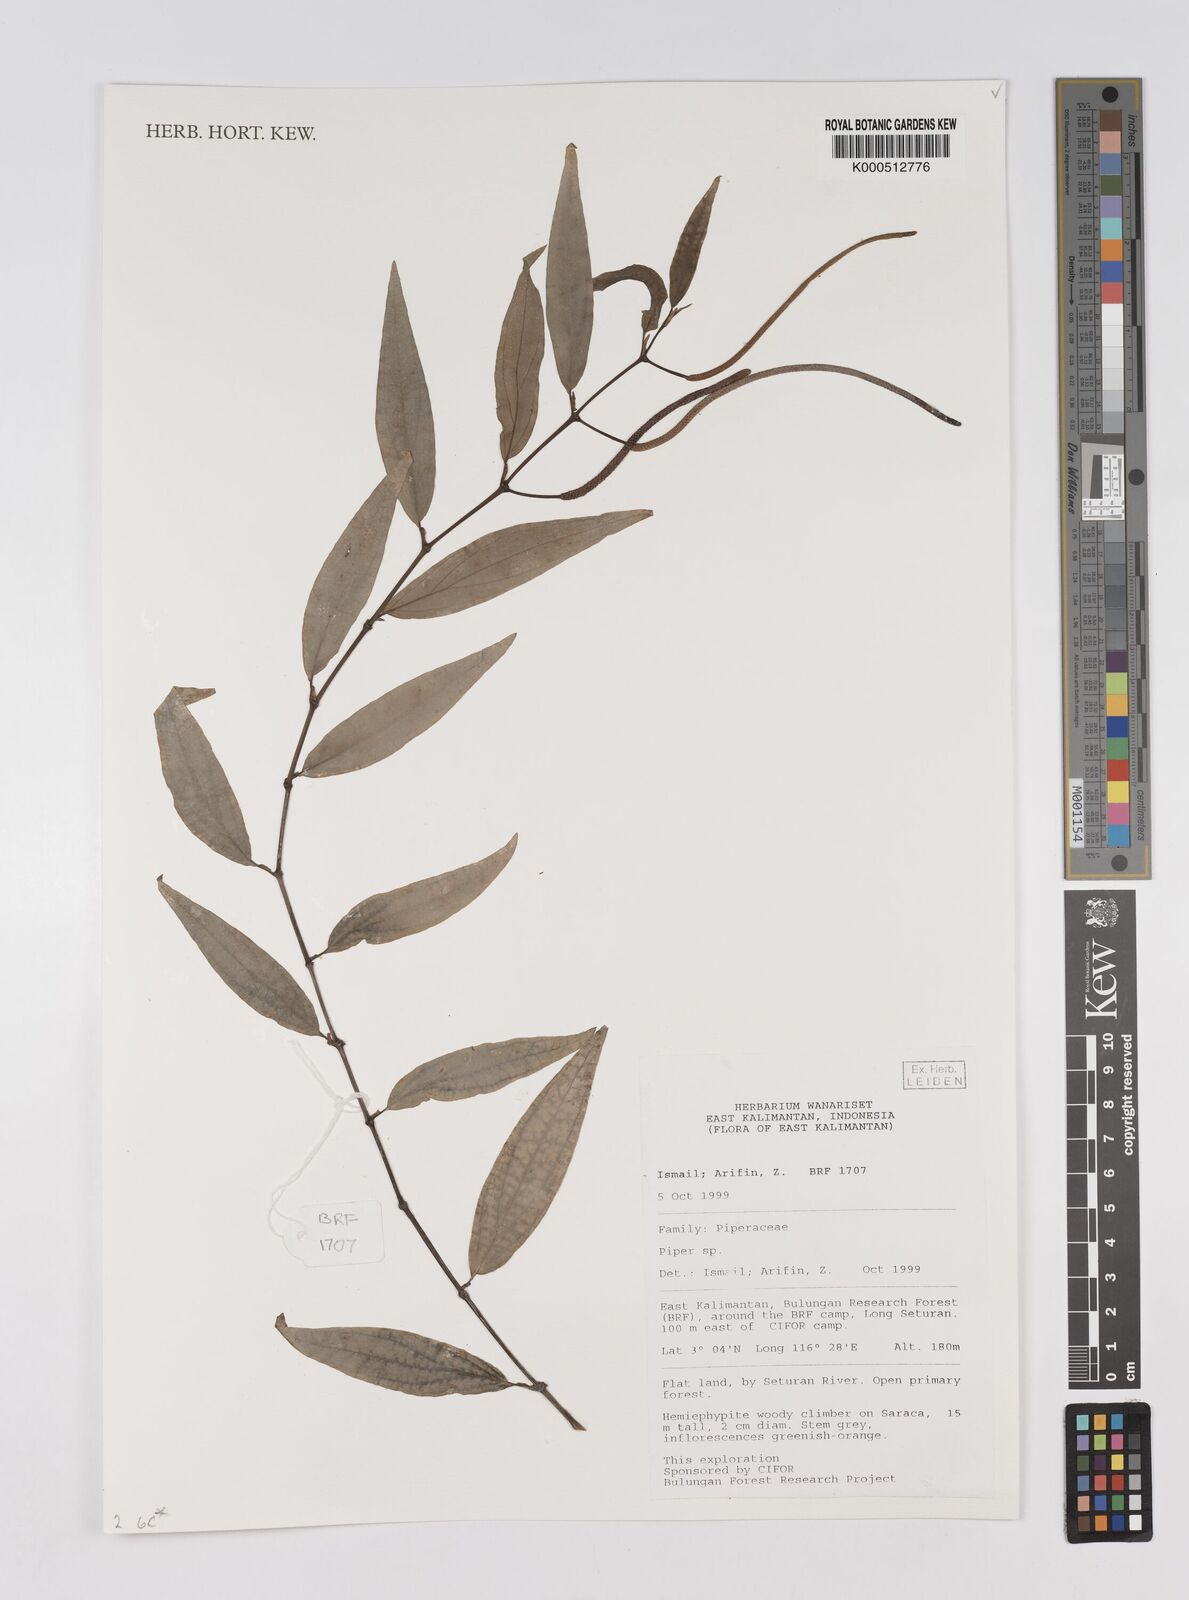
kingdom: Plantae
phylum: Tracheophyta
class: Magnoliopsida
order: Piperales
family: Piperaceae
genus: Piper
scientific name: Piper
